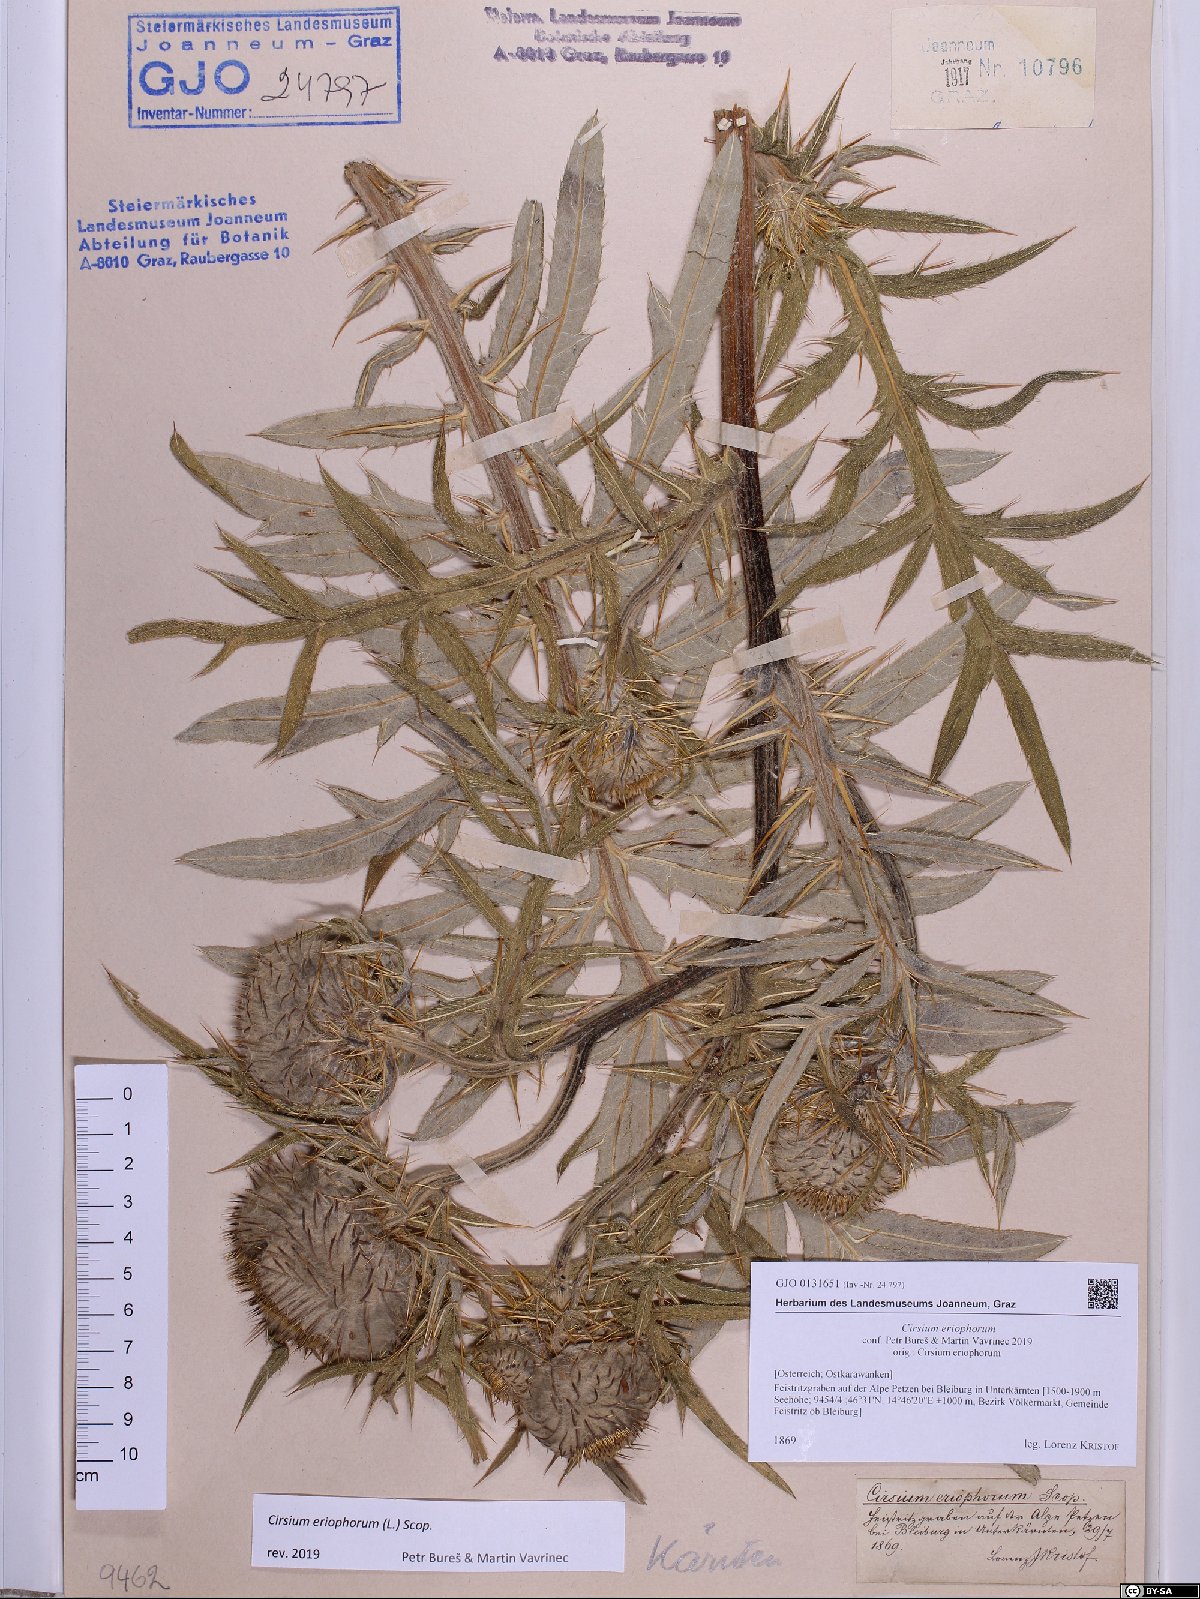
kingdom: Plantae
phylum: Tracheophyta
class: Magnoliopsida
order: Asterales
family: Asteraceae
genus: Lophiolepis
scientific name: Lophiolepis eriophora
